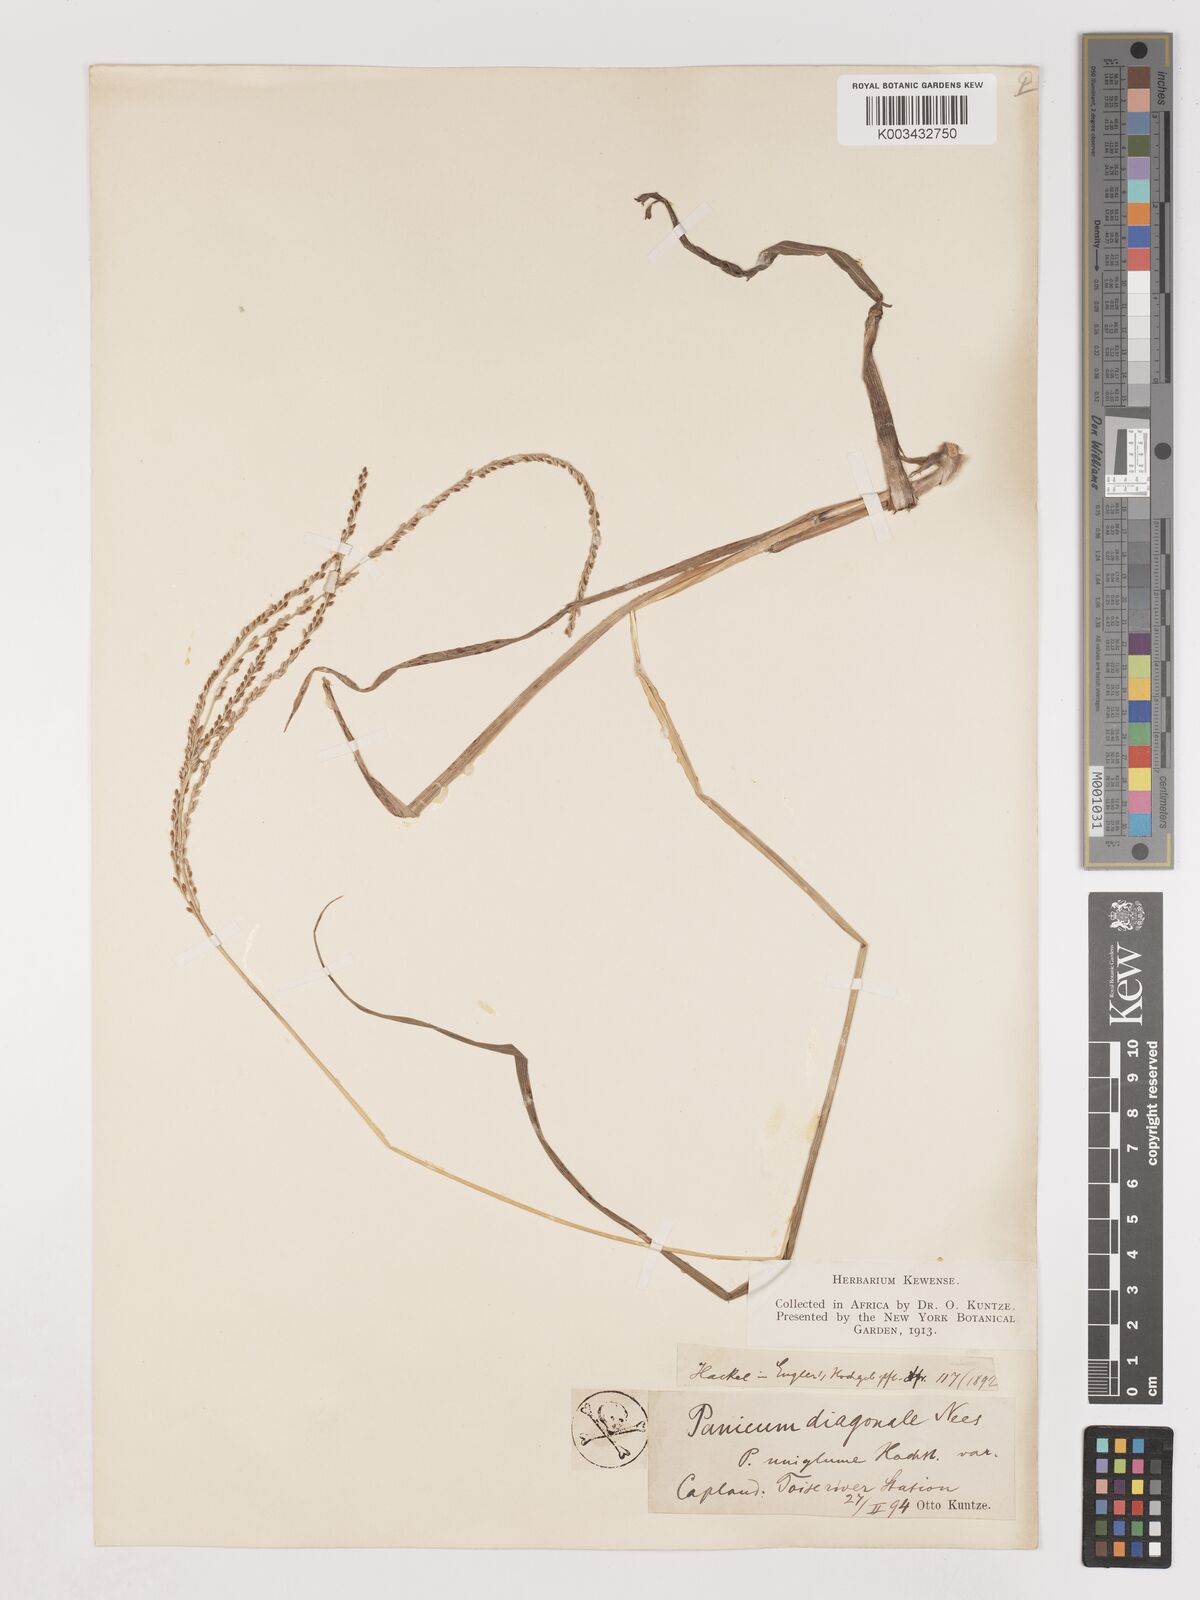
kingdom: Plantae
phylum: Tracheophyta
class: Liliopsida
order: Poales
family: Poaceae
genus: Digitaria
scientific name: Digitaria diagonalis
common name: Brown-seed finger grass
